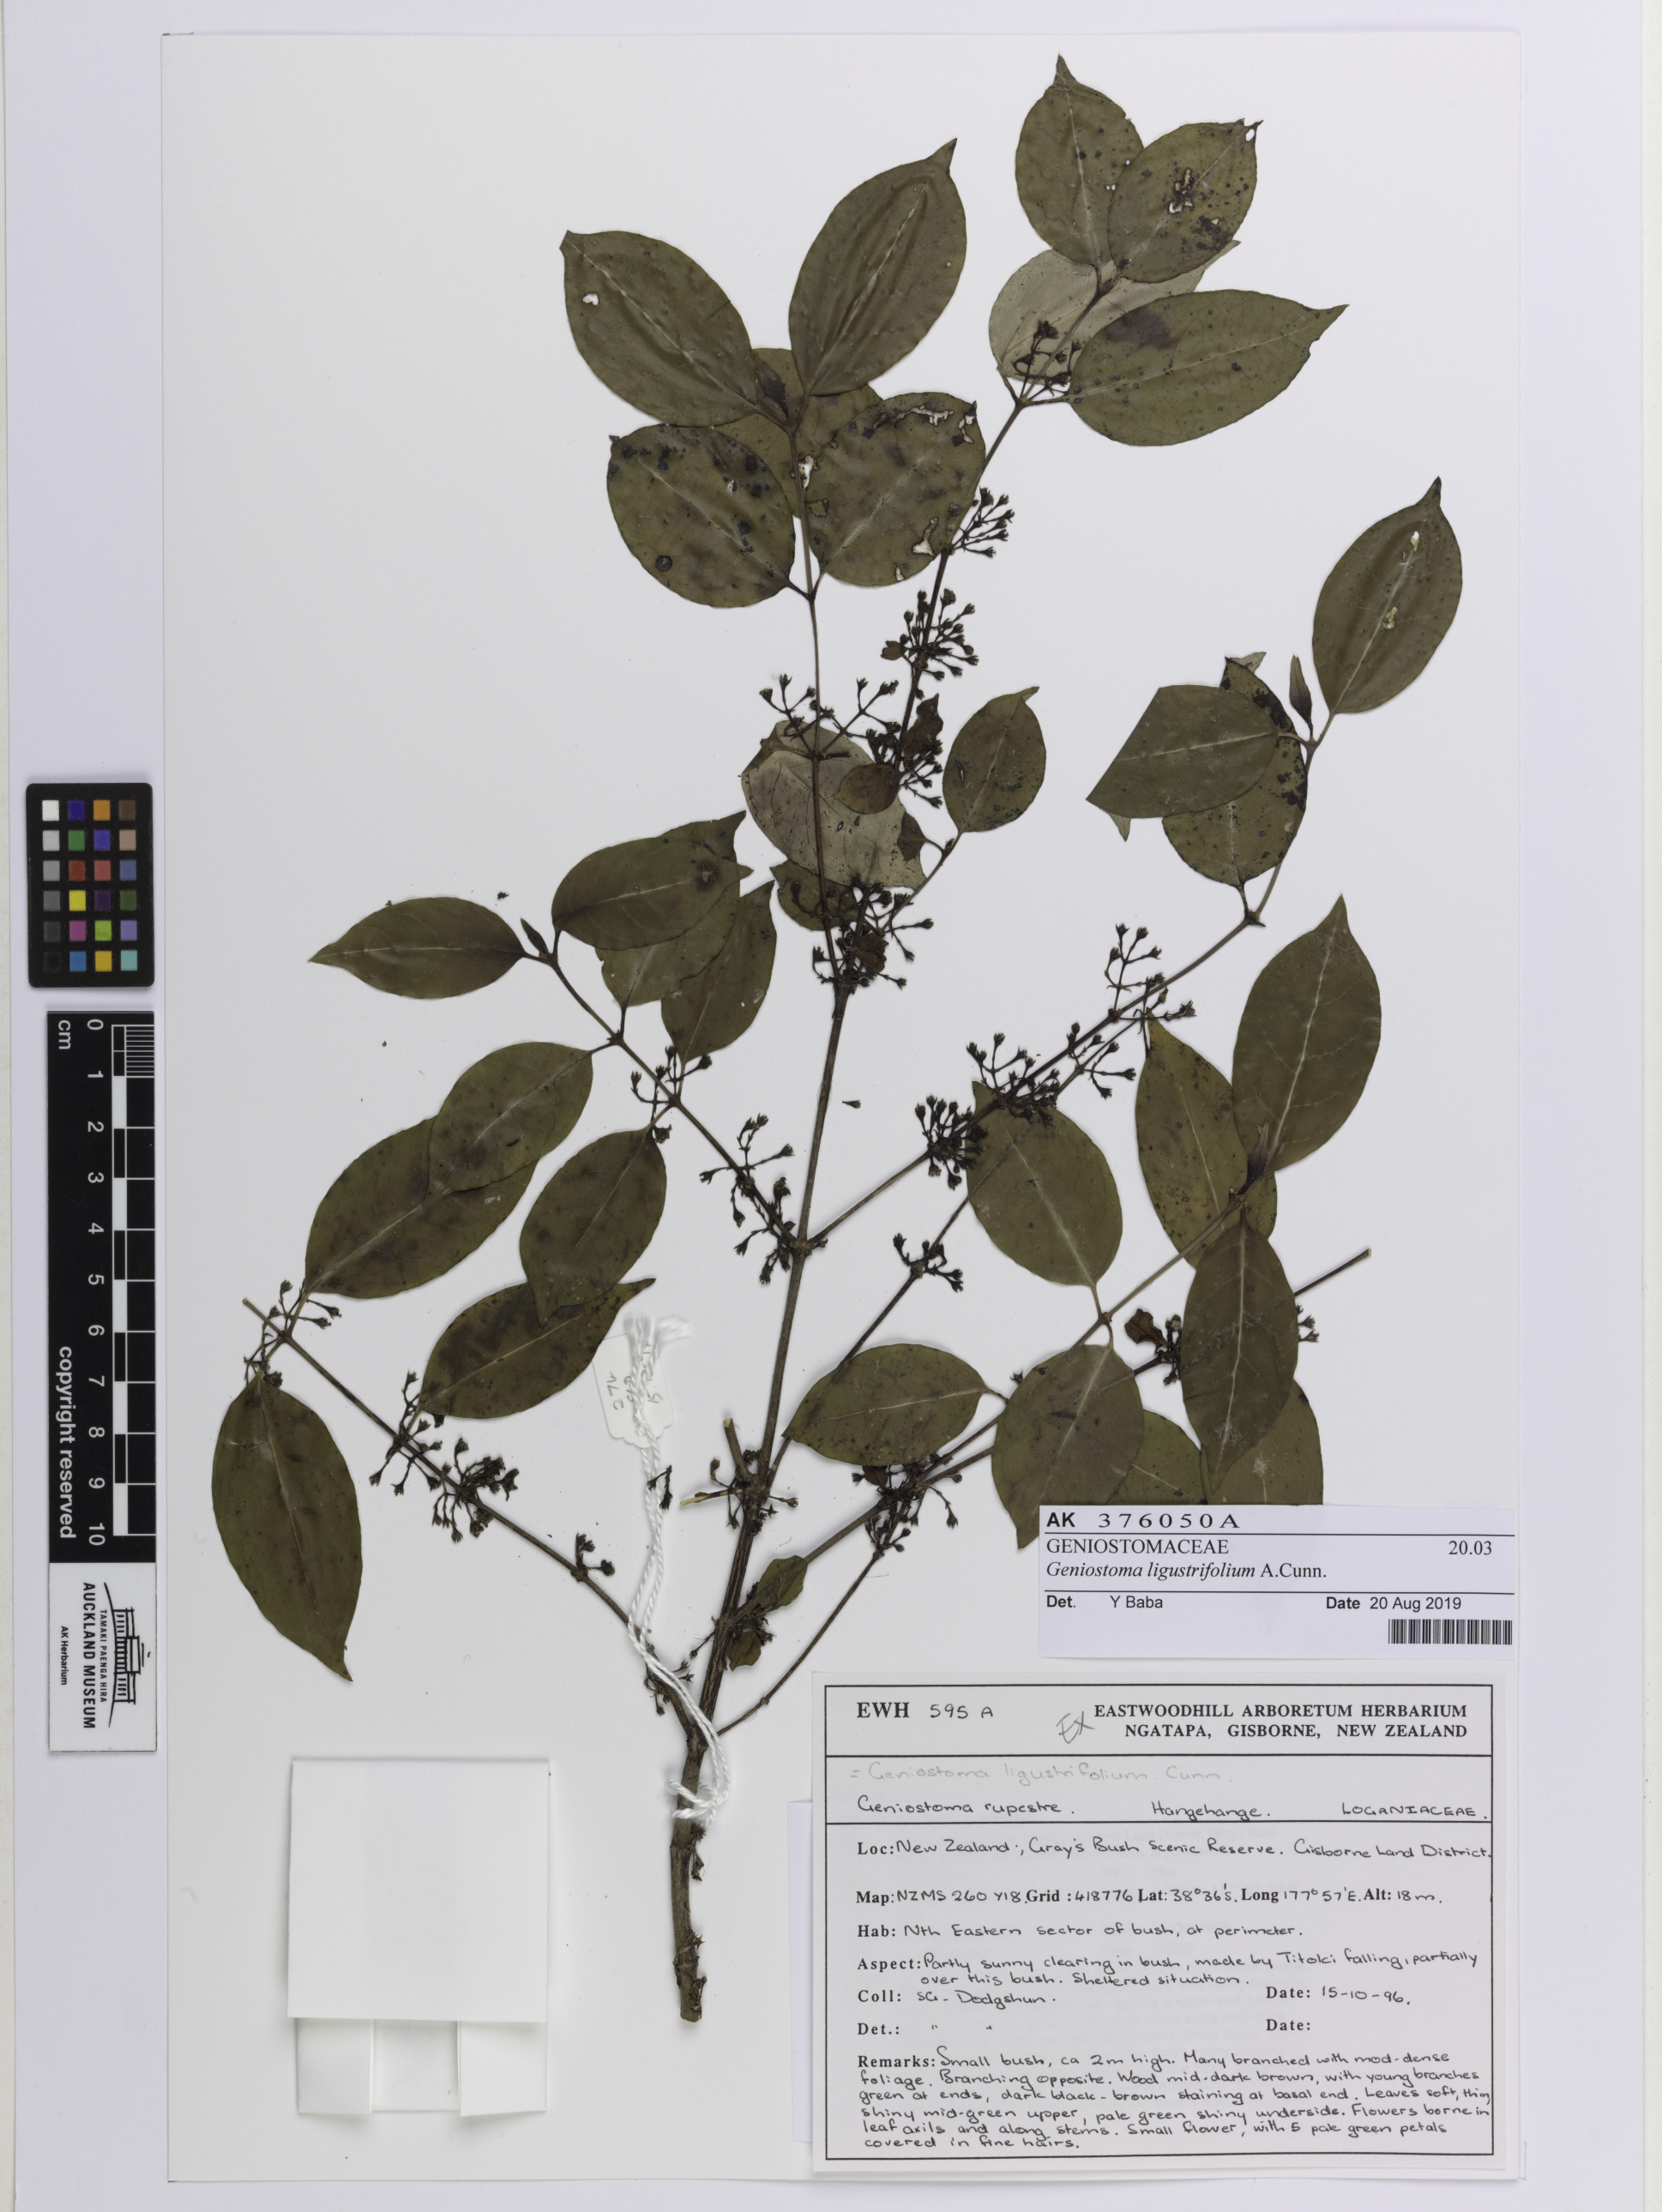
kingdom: Plantae
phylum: Tracheophyta
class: Magnoliopsida
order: Gentianales
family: Loganiaceae
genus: Geniostoma
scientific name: Geniostoma ligustrifolium
